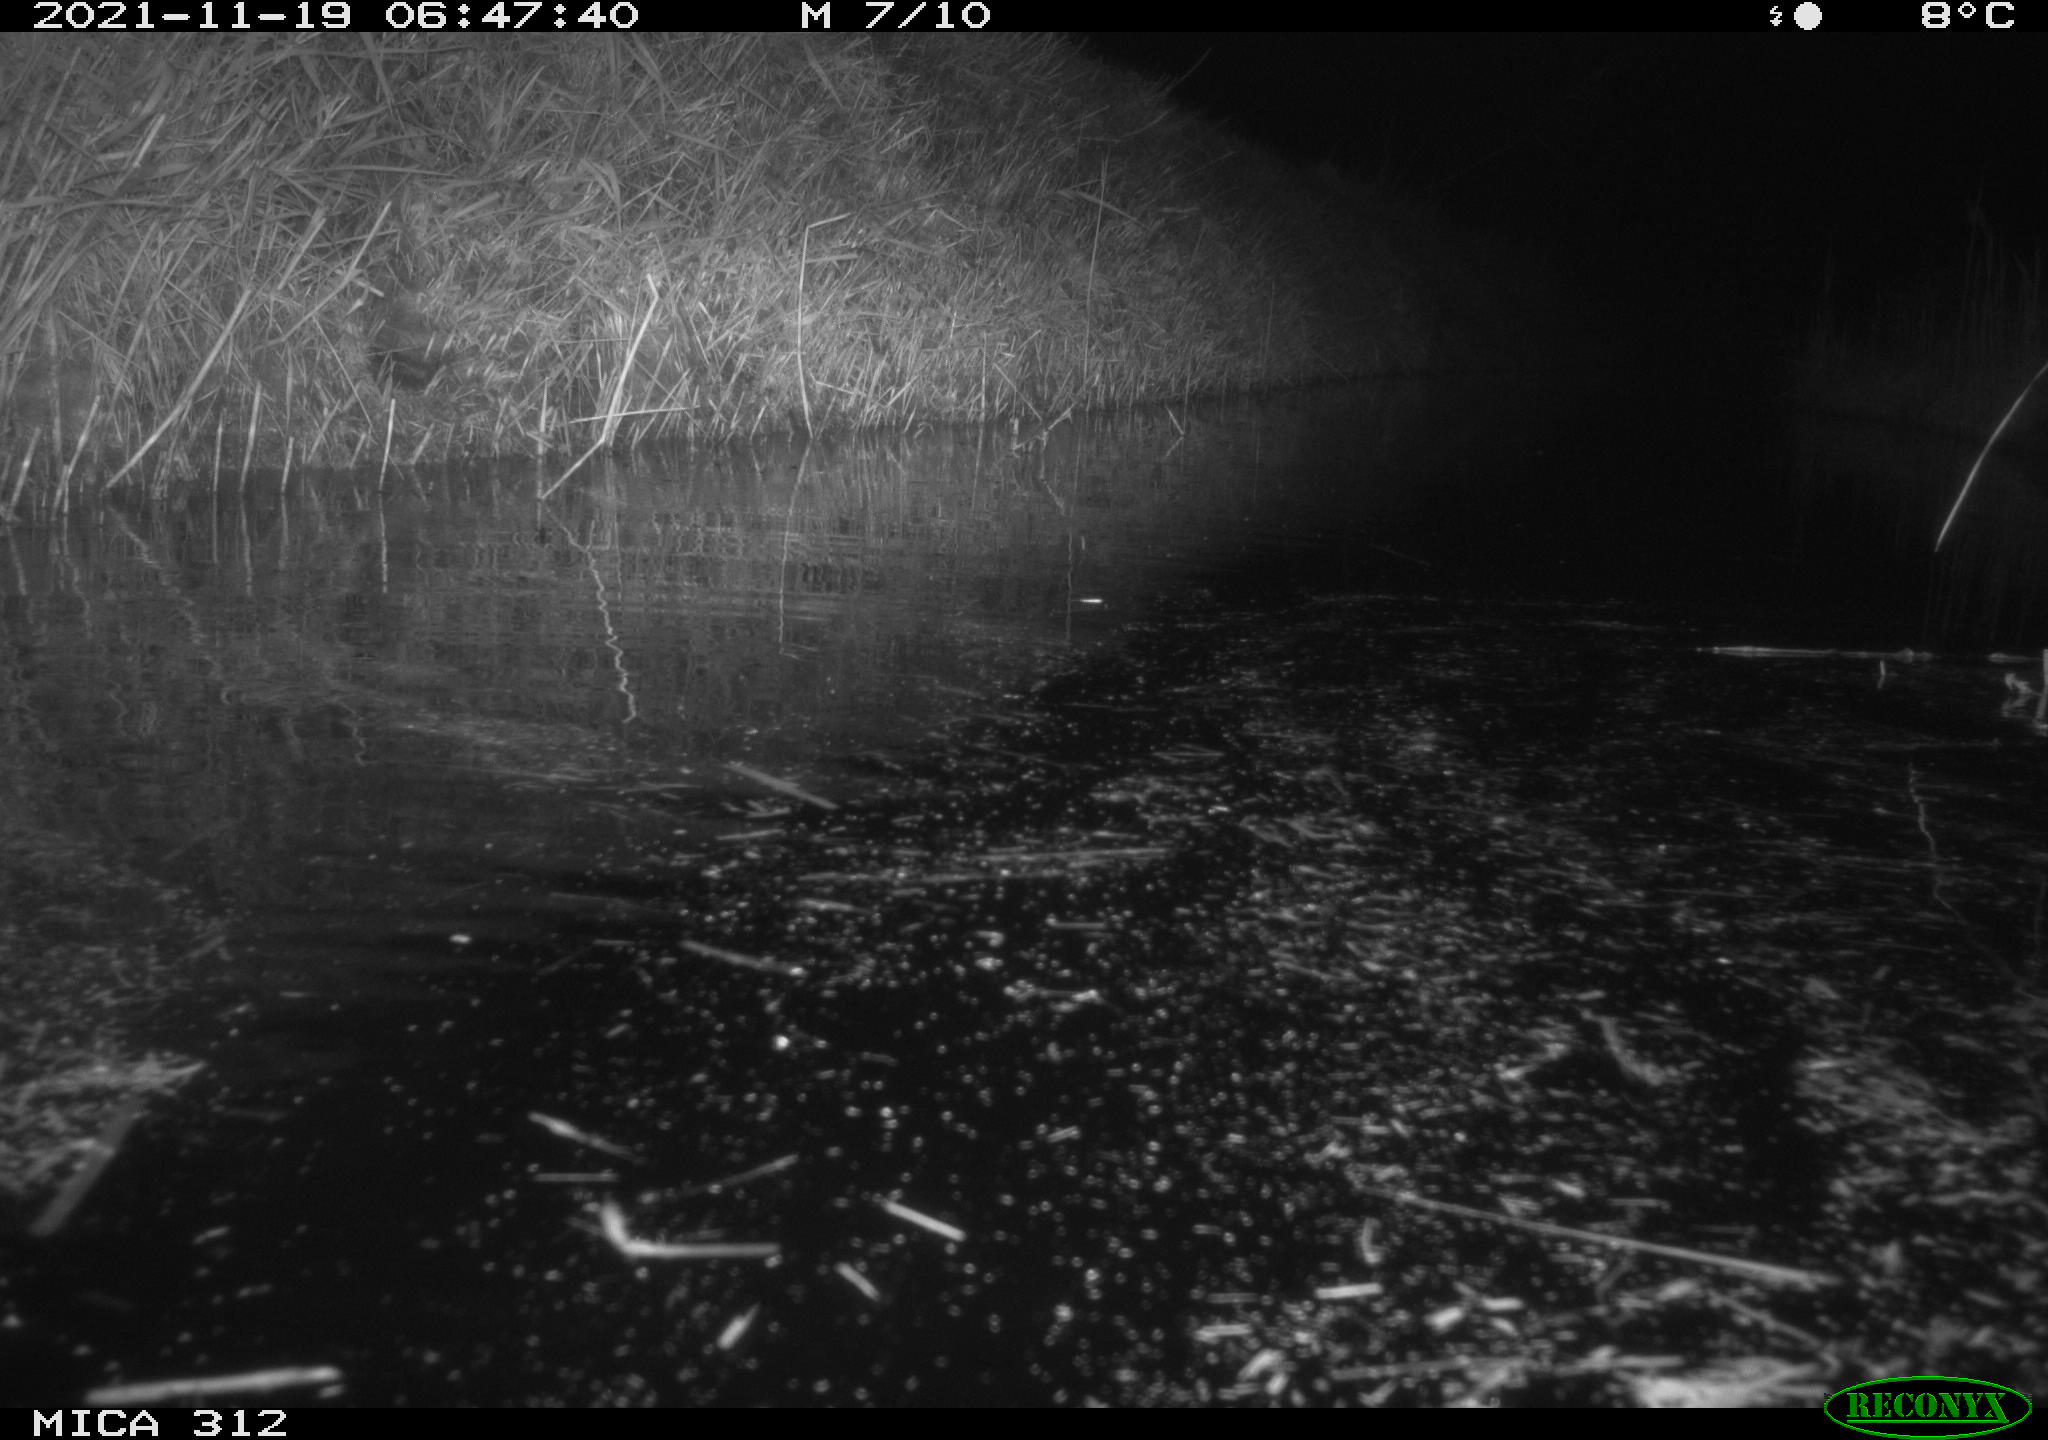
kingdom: Animalia
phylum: Chordata
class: Mammalia
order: Rodentia
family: Muridae
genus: Rattus
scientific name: Rattus norvegicus
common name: Brown rat
